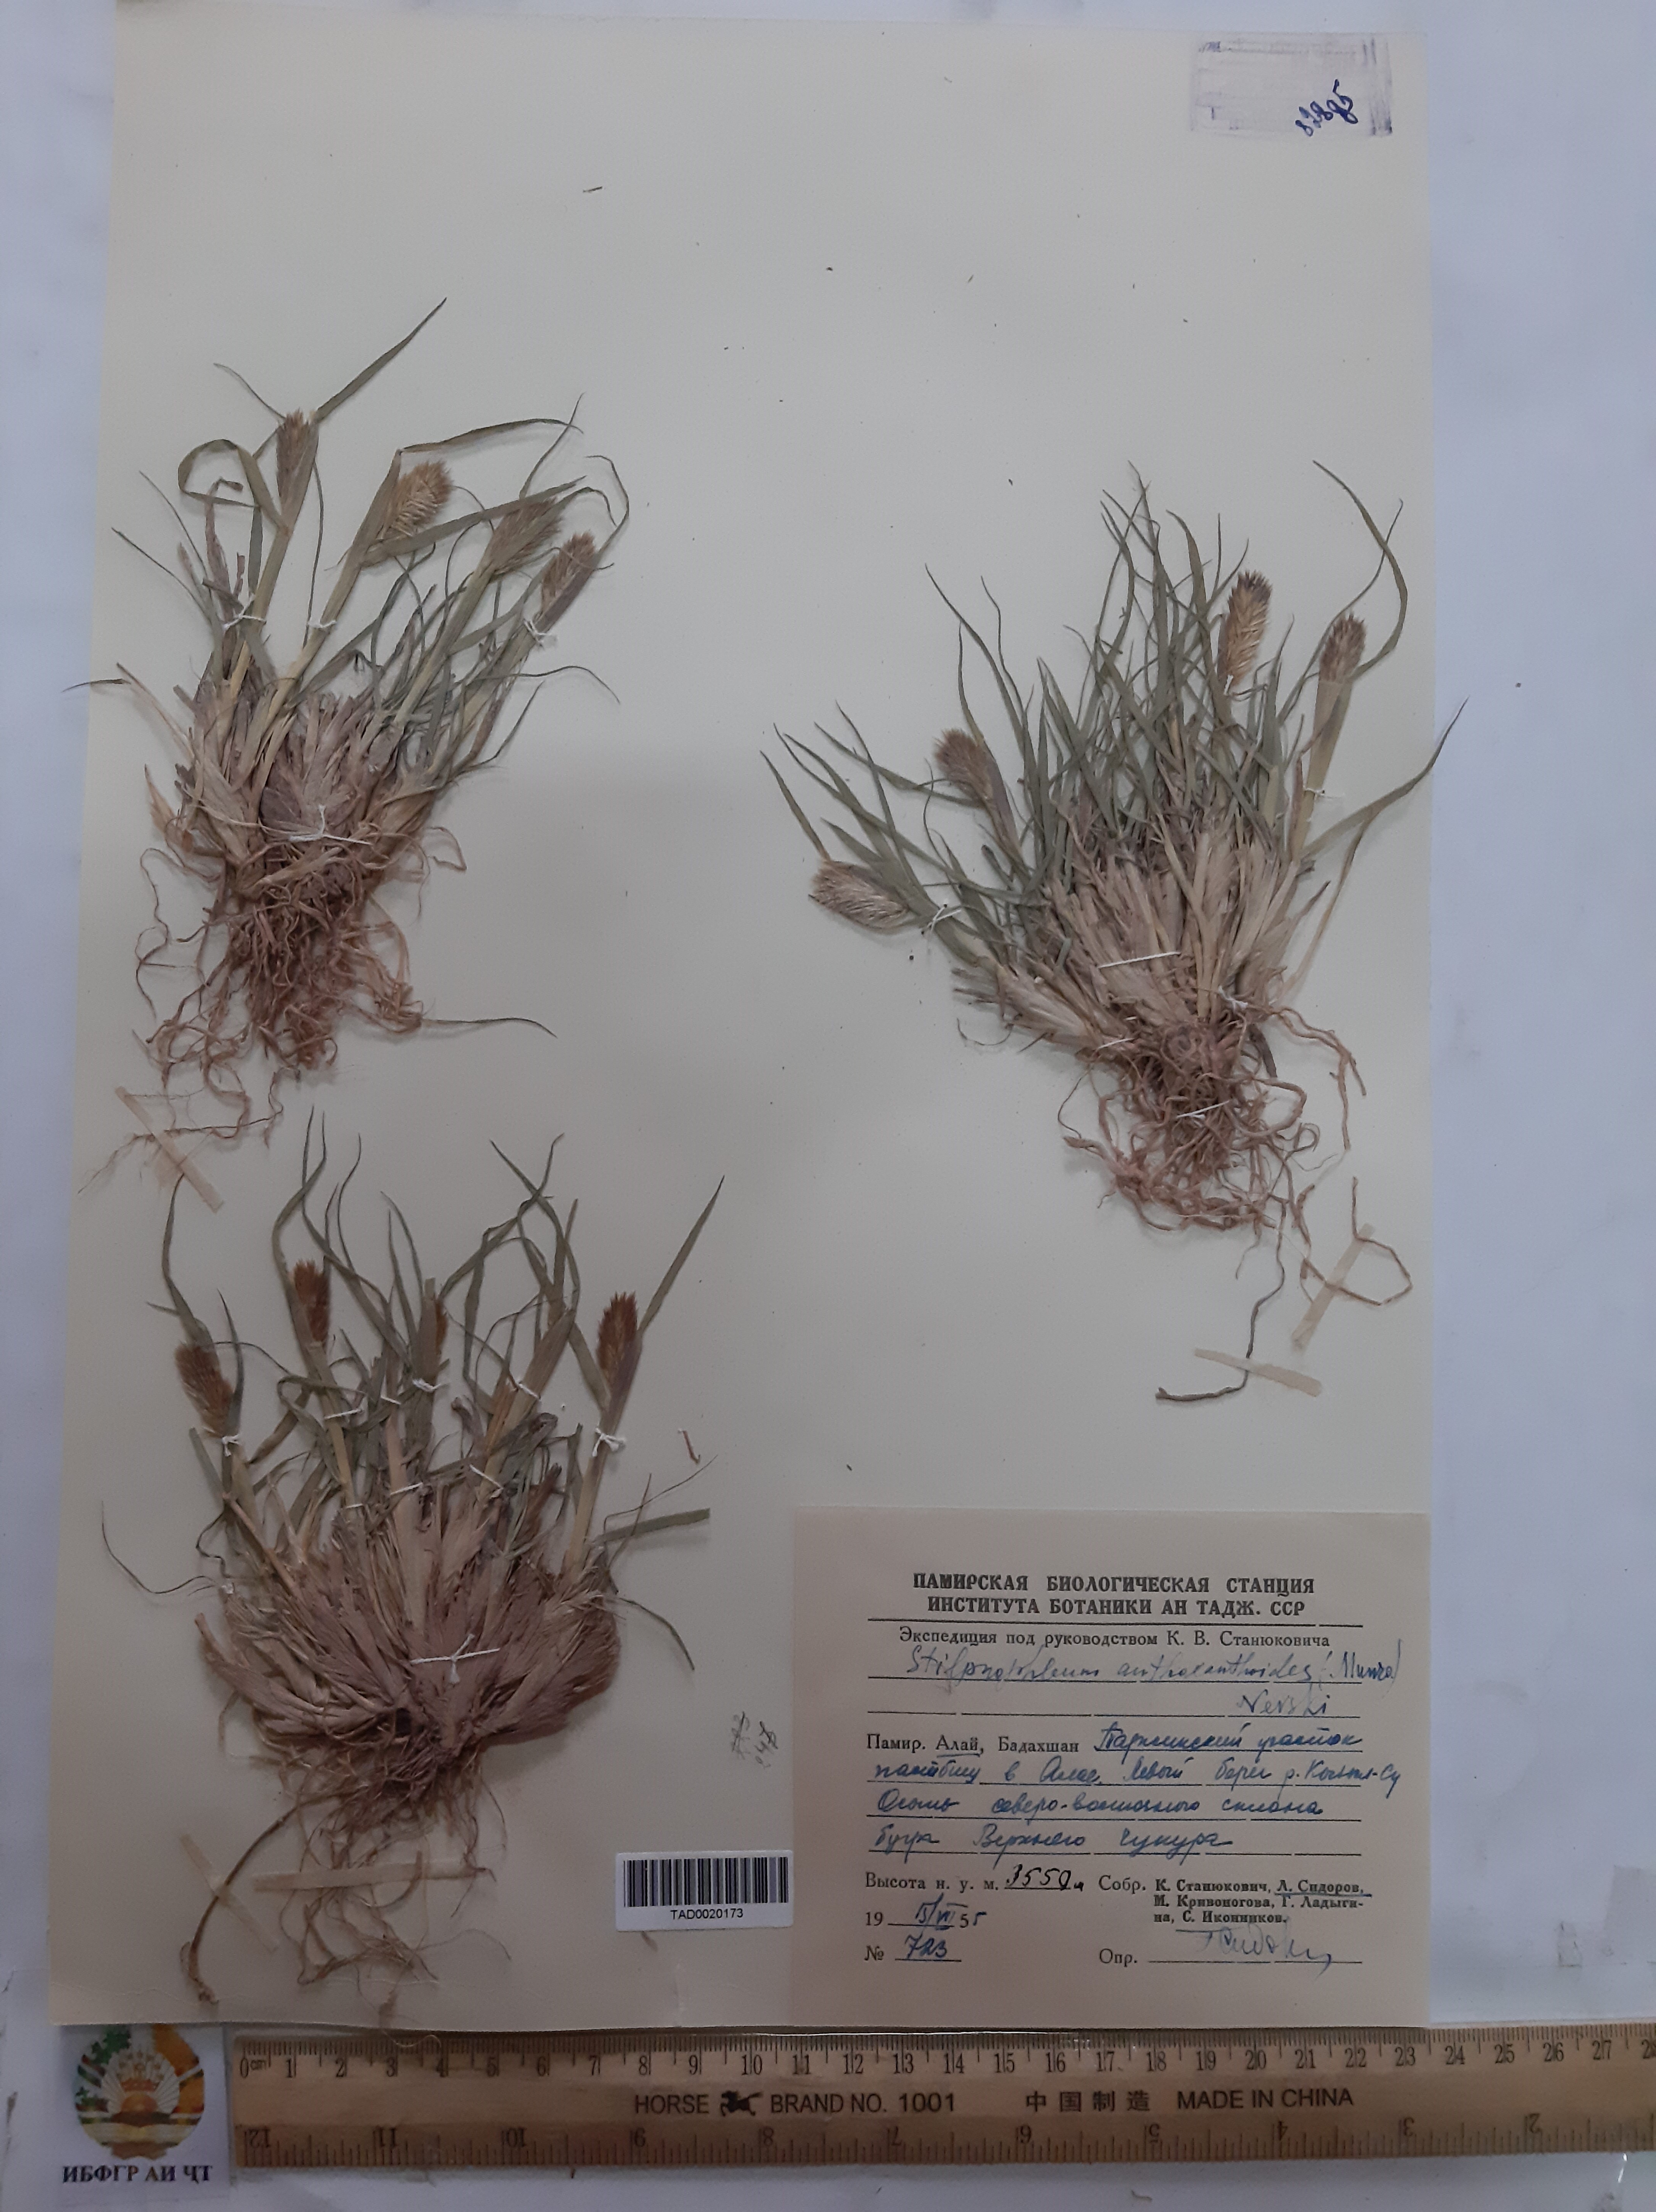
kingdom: Plantae
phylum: Tracheophyta
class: Liliopsida
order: Poales
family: Poaceae
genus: Calamagrostis
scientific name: Calamagrostis anthoxanthoides
